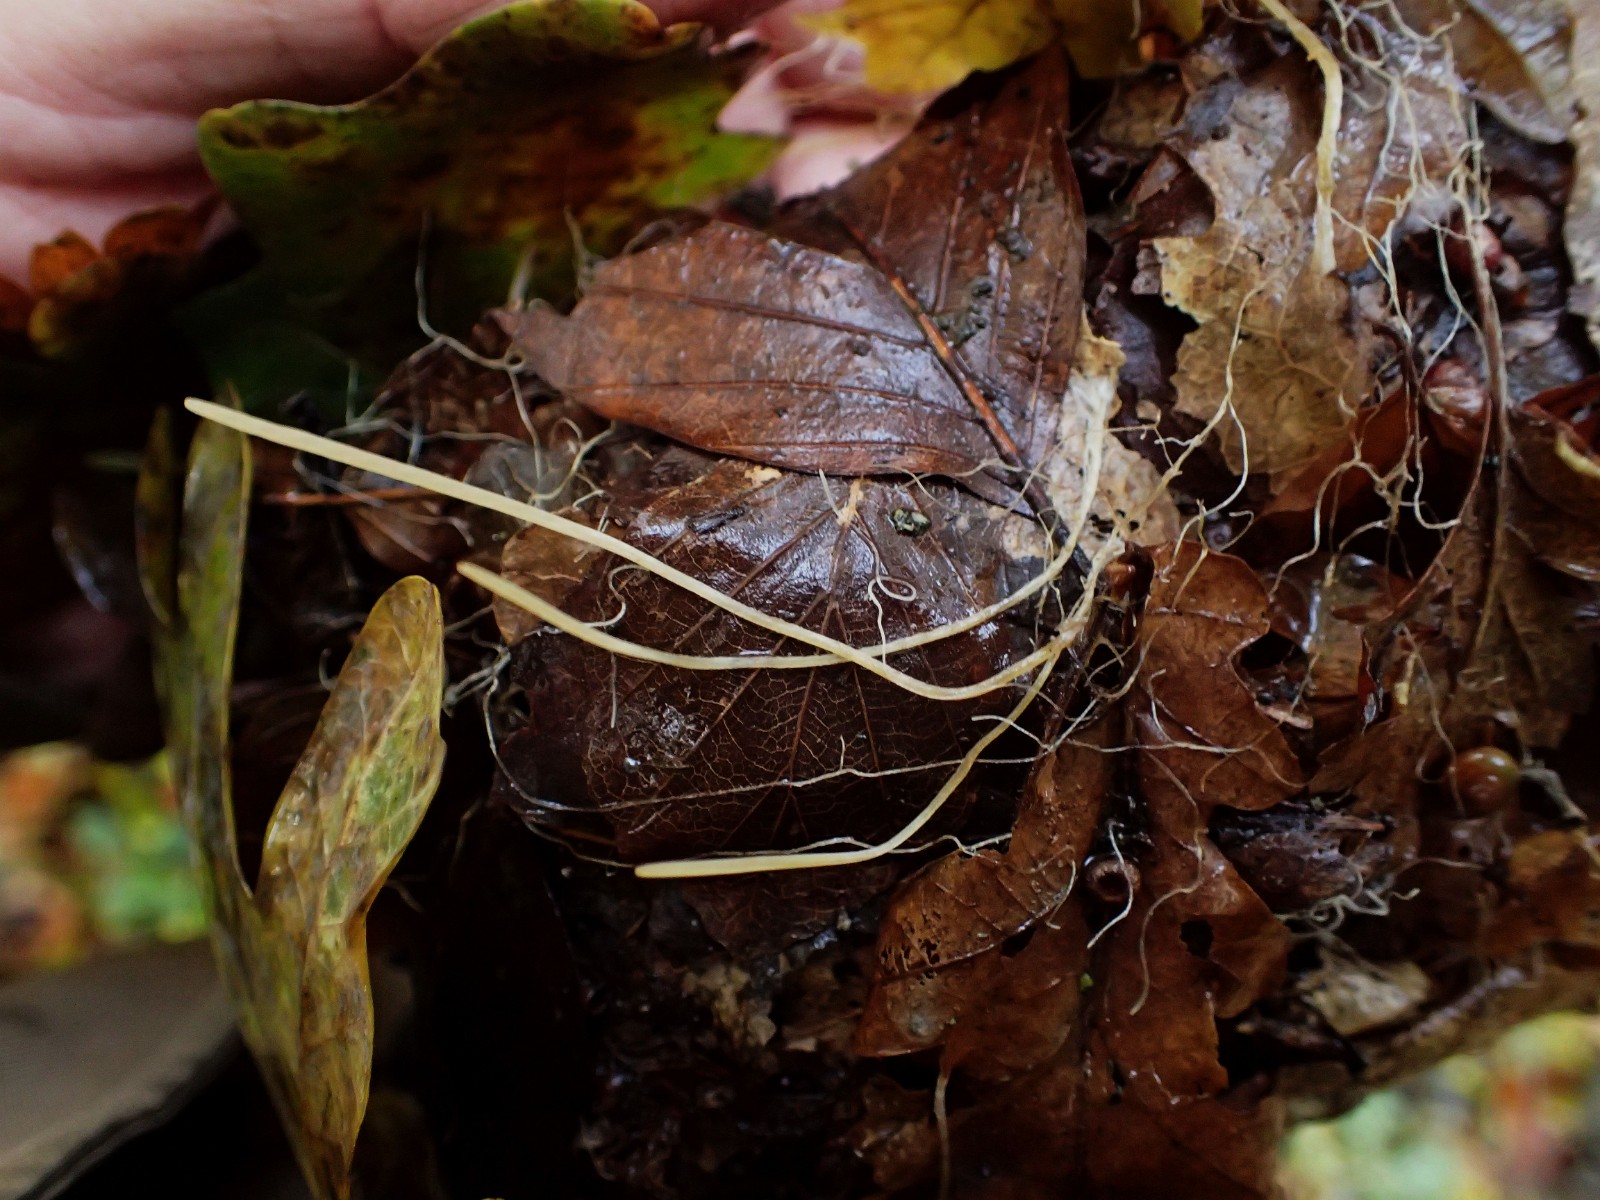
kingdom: Fungi
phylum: Basidiomycota
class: Agaricomycetes
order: Agaricales
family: Typhulaceae
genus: Typhula
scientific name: Typhula juncea
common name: trådagtig rørkølle
